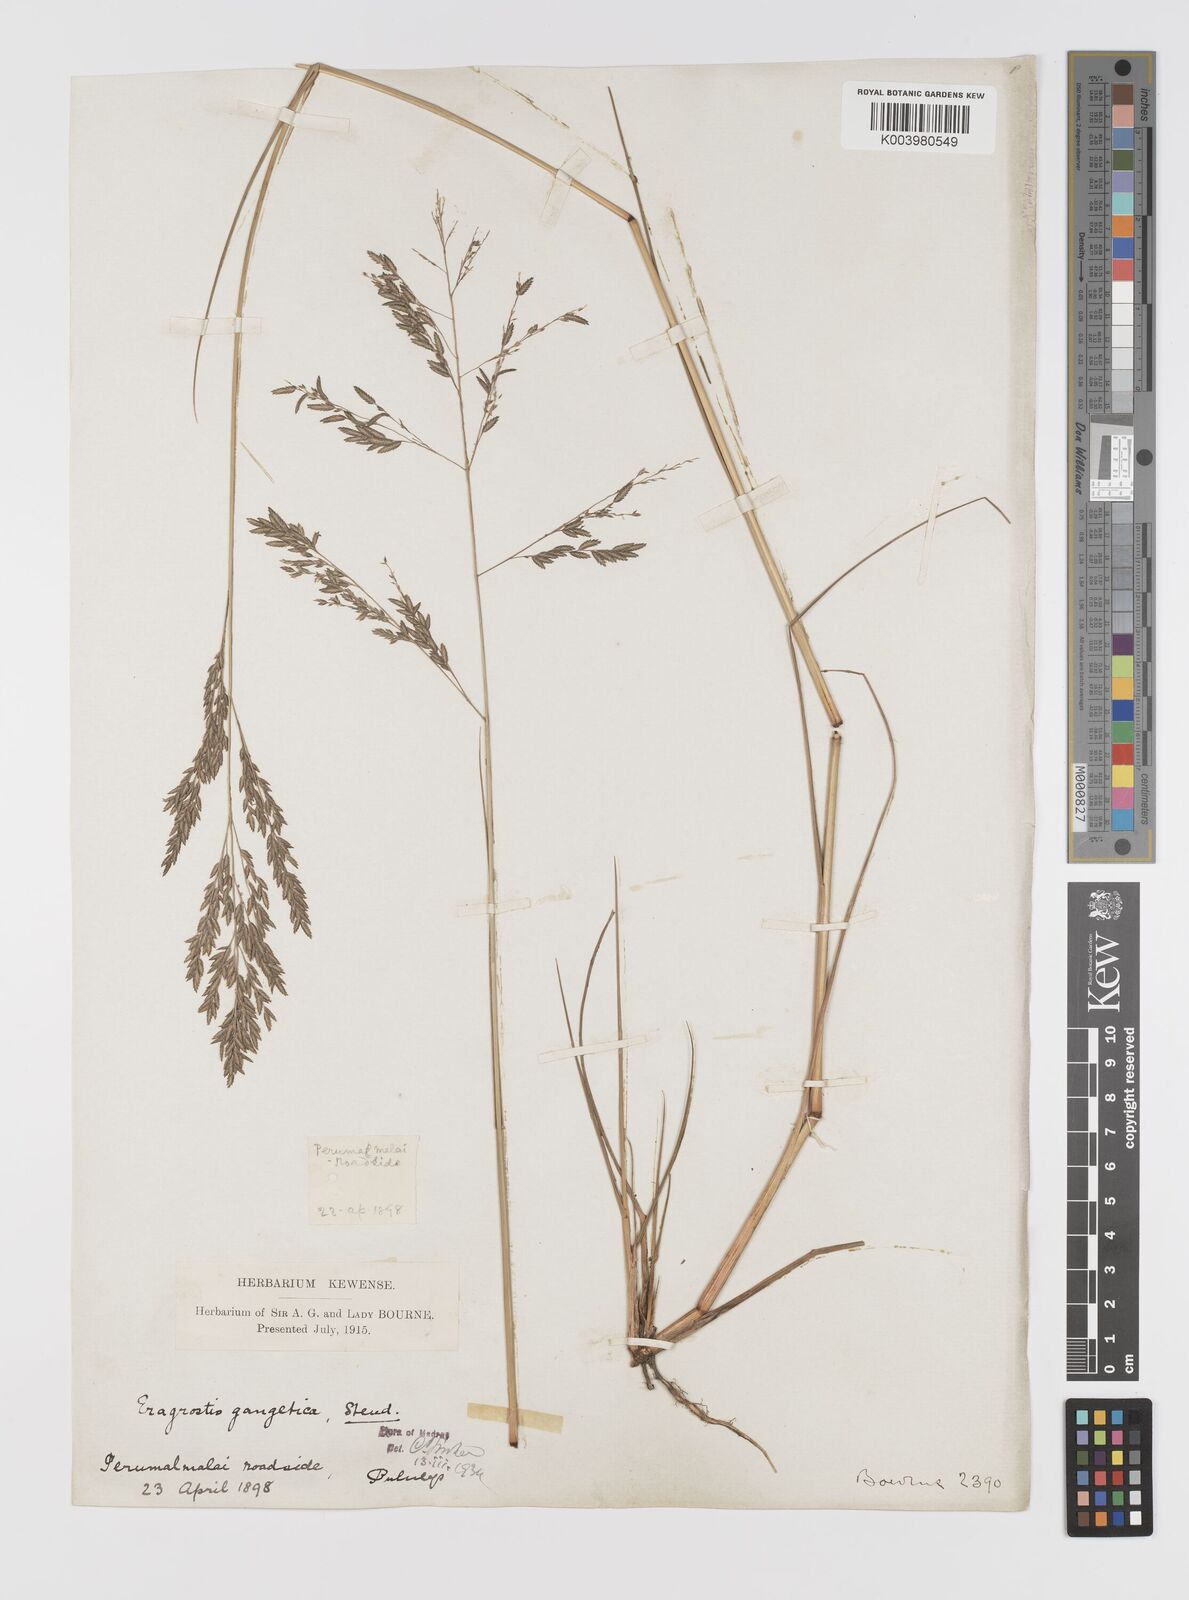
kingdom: Plantae
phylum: Tracheophyta
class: Liliopsida
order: Poales
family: Poaceae
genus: Eragrostis
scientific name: Eragrostis
